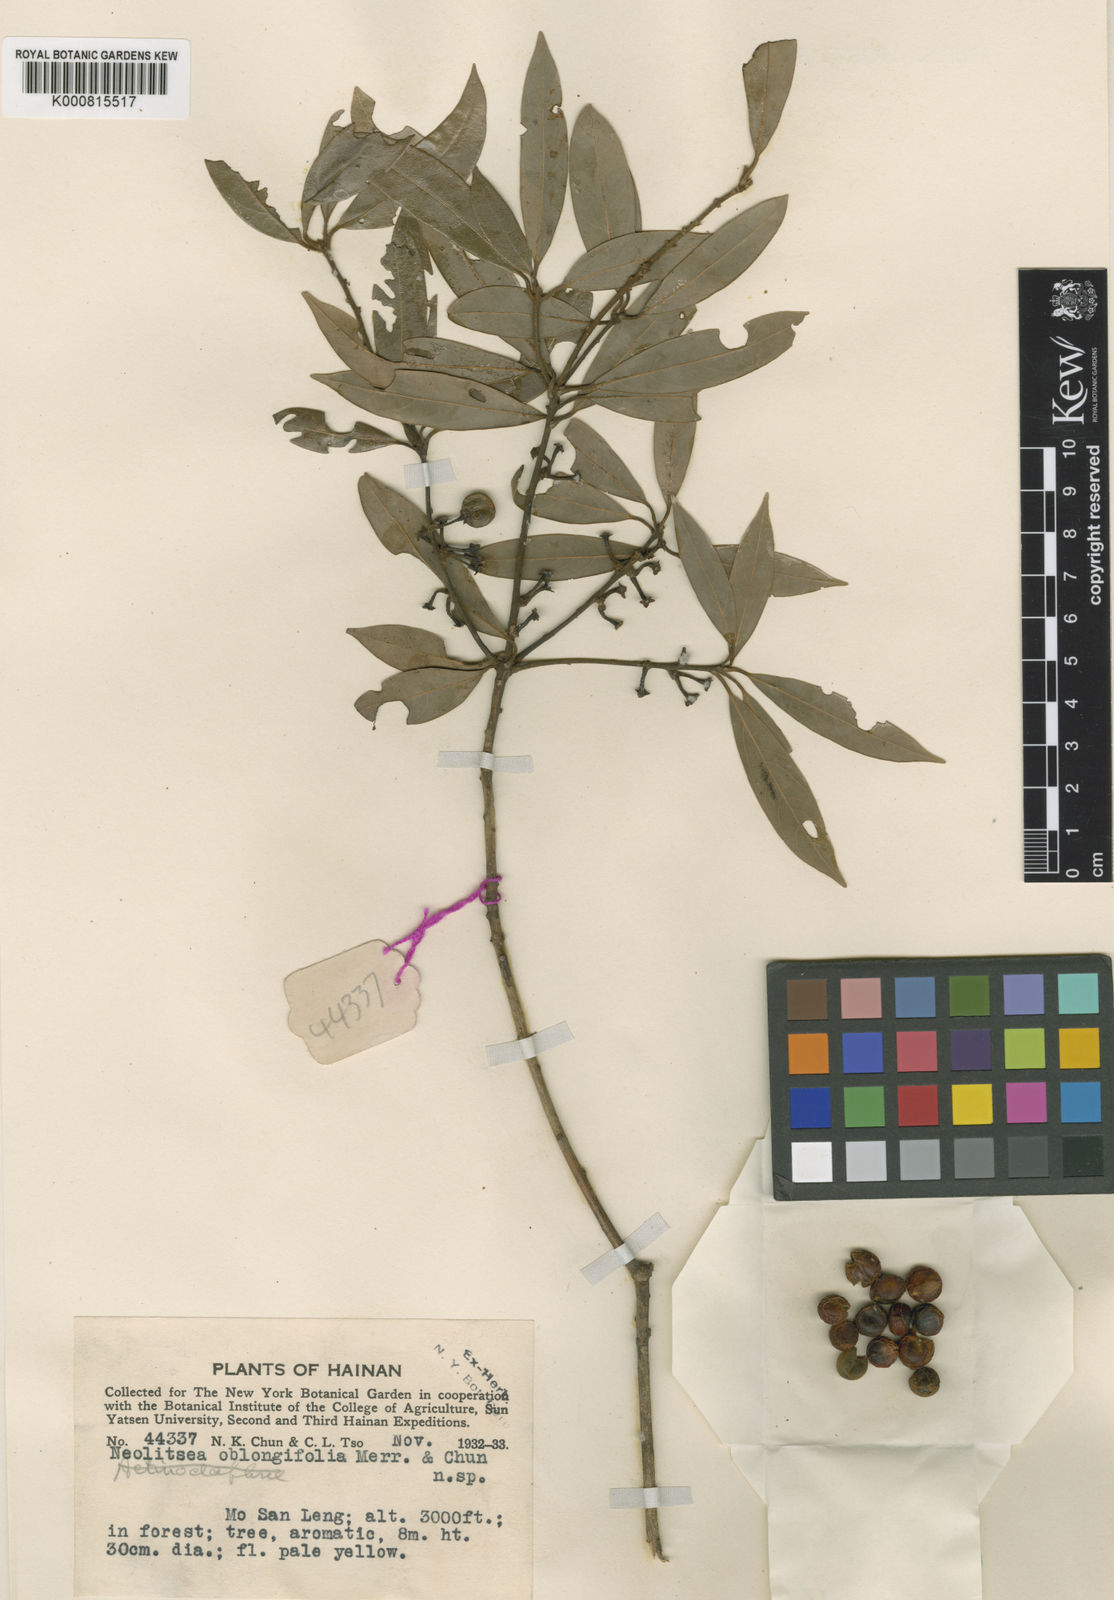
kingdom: Plantae
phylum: Tracheophyta
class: Magnoliopsida
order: Laurales
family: Lauraceae
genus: Neolitsea
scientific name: Neolitsea oblongifolia
